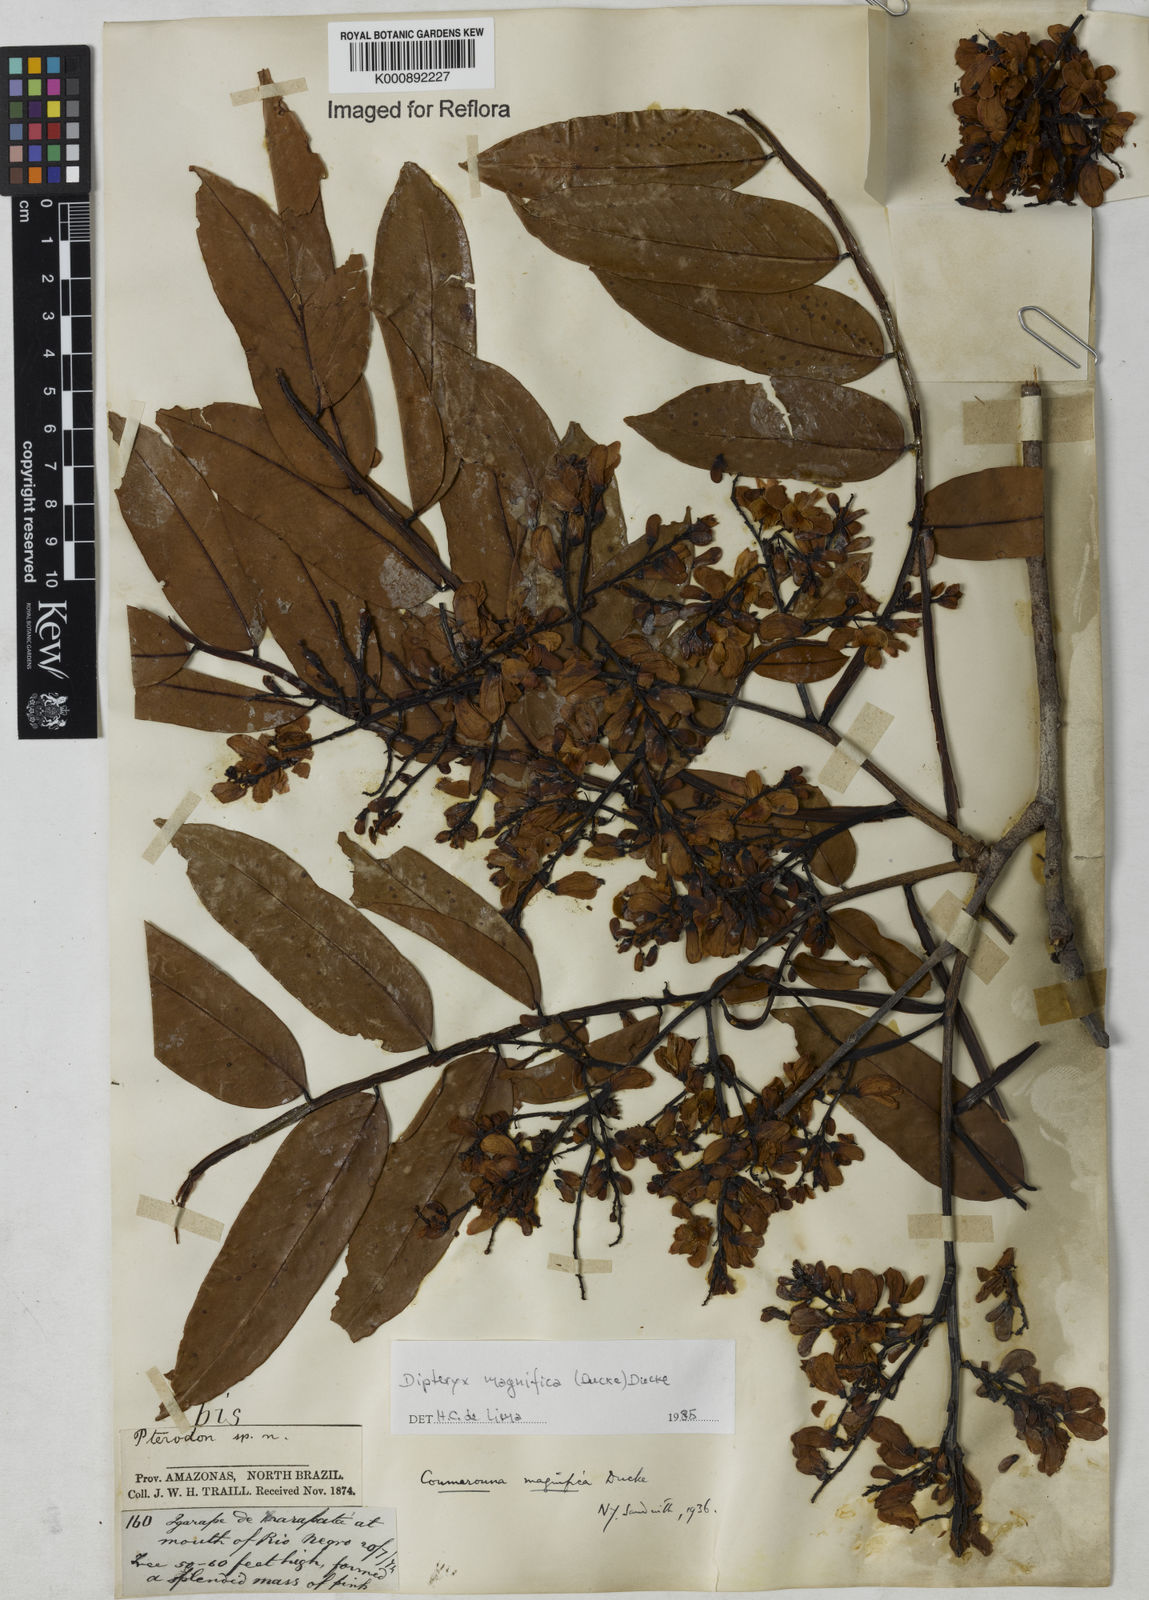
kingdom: Plantae
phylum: Tracheophyta
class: Magnoliopsida
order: Fabales
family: Fabaceae
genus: Dipteryx
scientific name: Dipteryx magnifica
